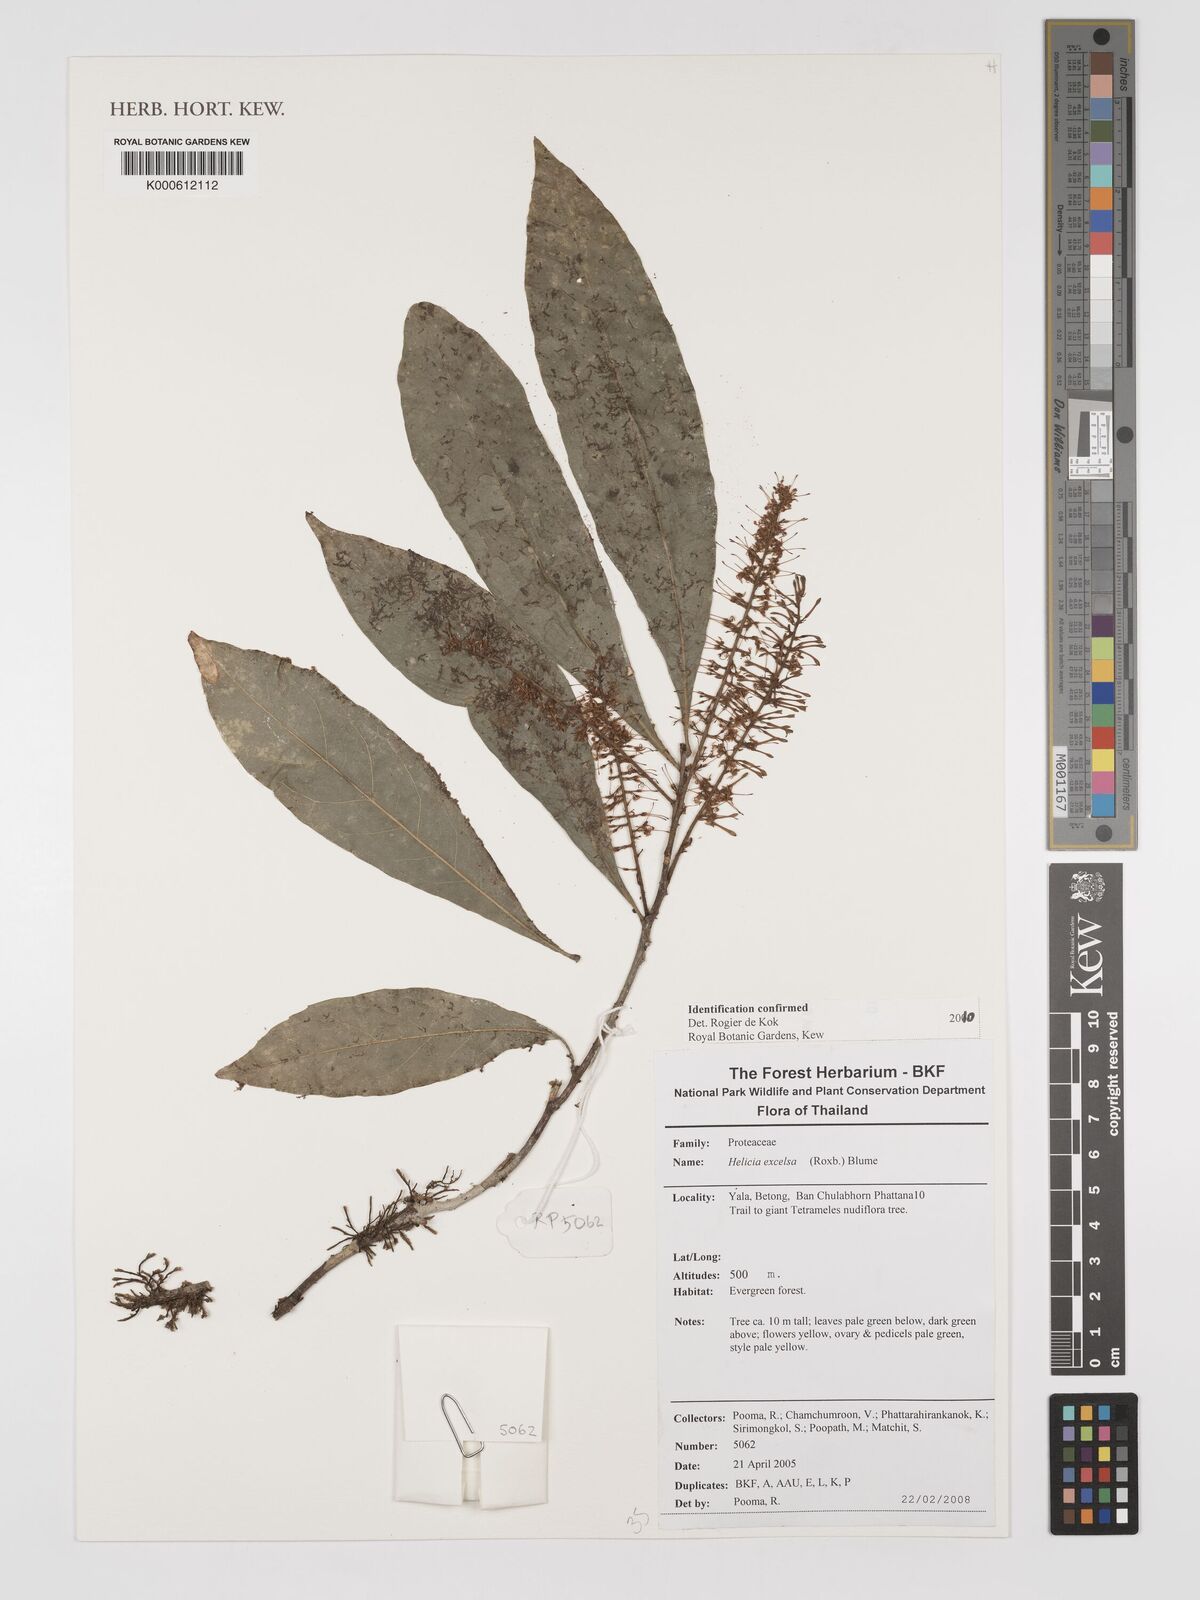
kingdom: Plantae
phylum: Tracheophyta
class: Magnoliopsida
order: Proteales
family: Proteaceae
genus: Helicia
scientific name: Helicia excelsa
